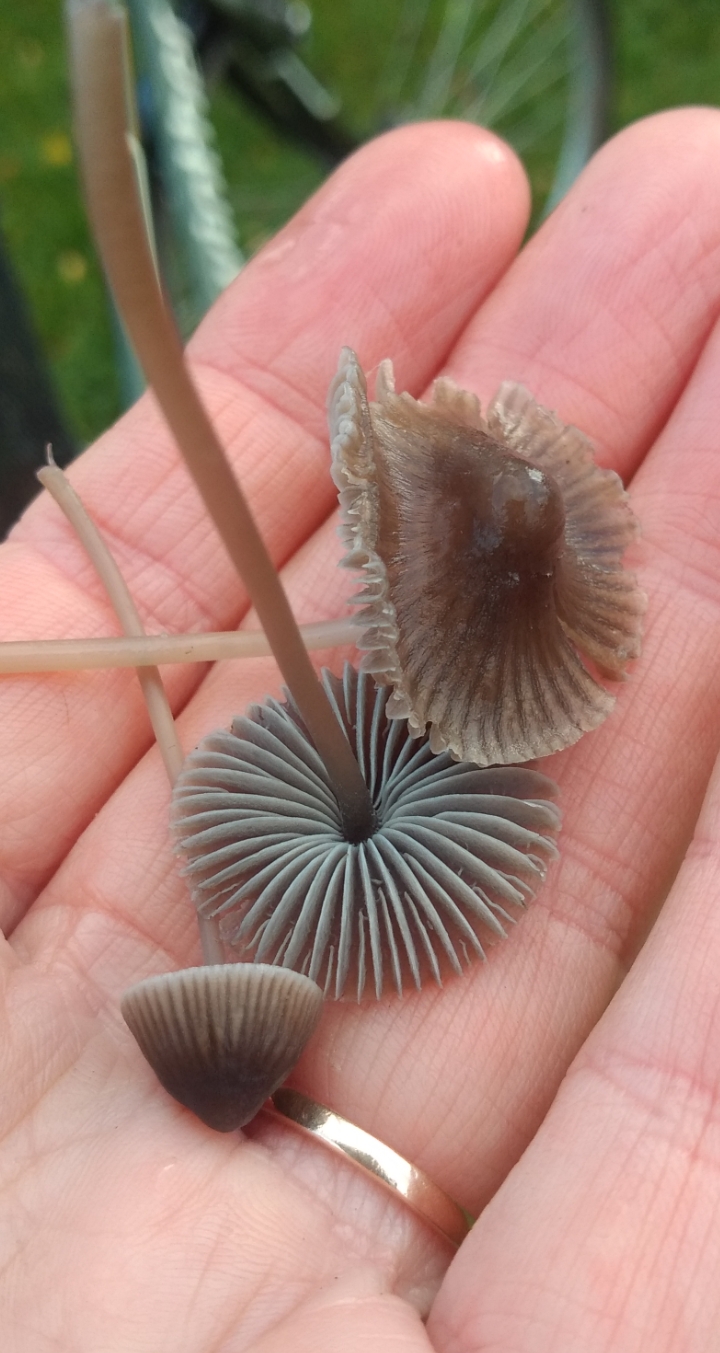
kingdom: Fungi
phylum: Basidiomycota
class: Agaricomycetes
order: Agaricales
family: Mycenaceae
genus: Mycena
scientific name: Mycena aetites
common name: plæne-huesvamp
